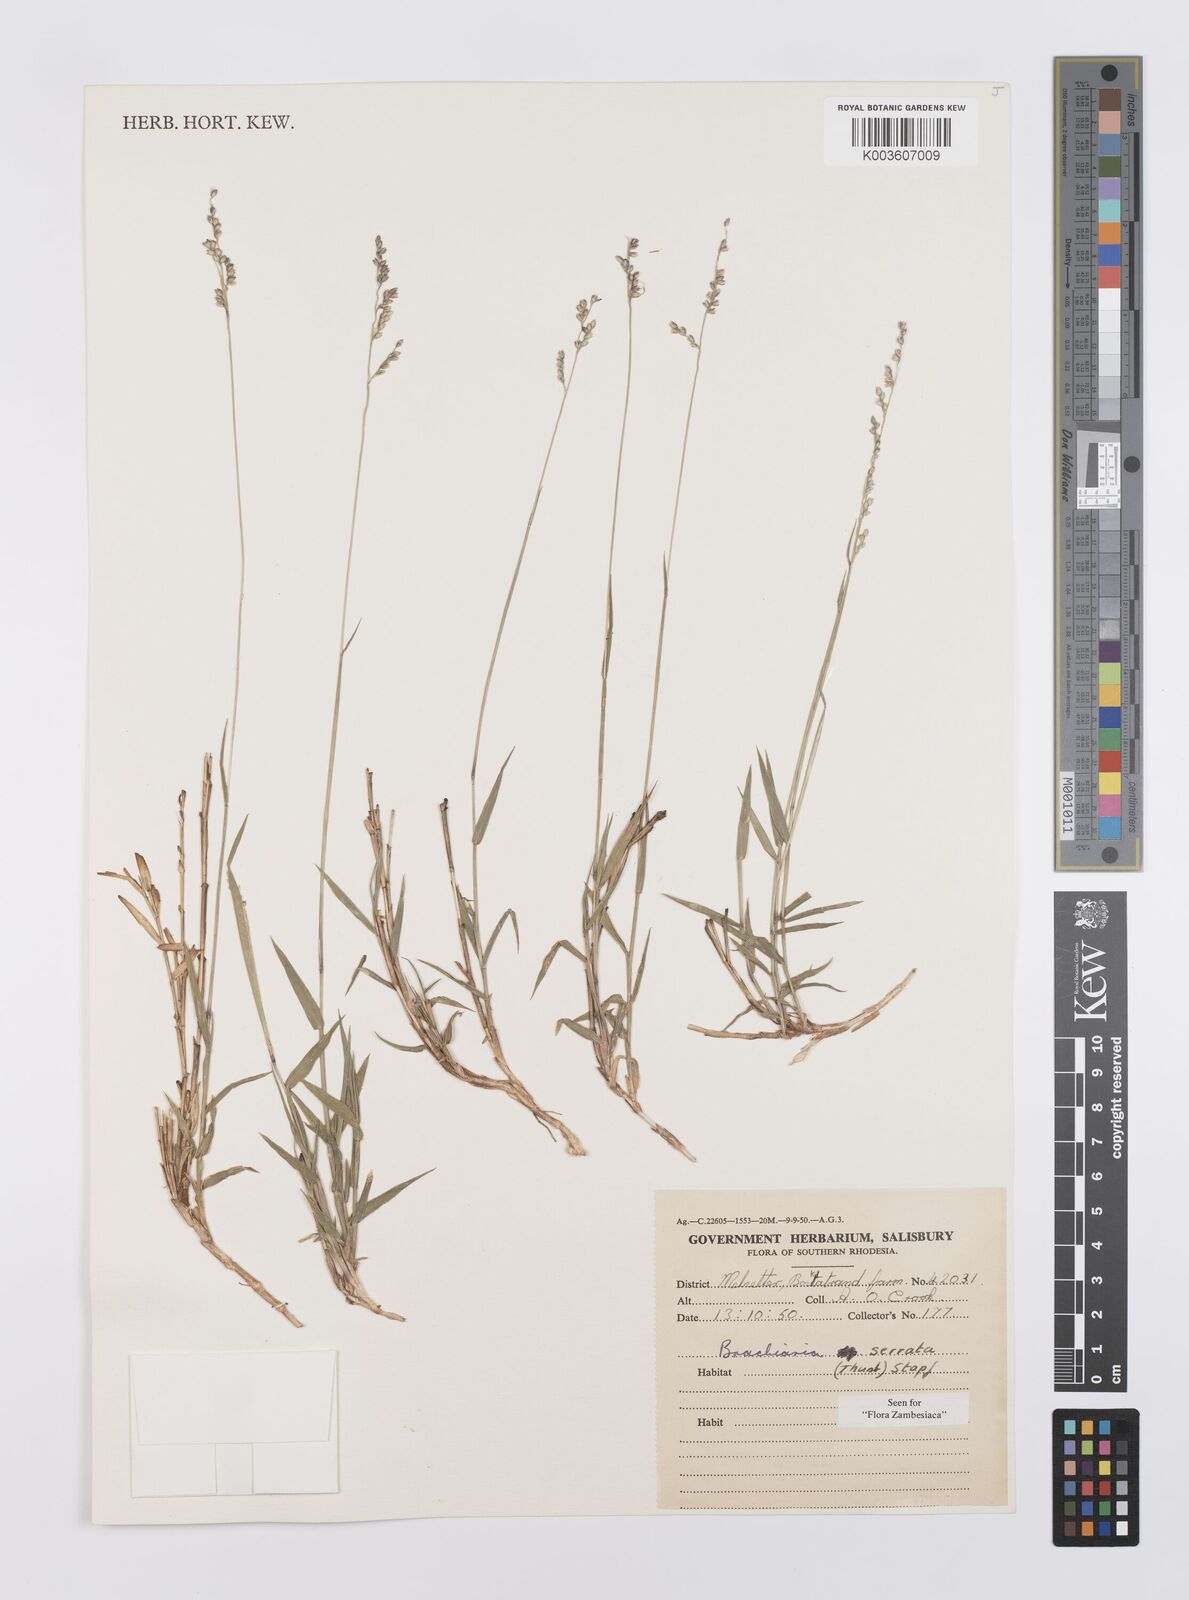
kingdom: Plantae
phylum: Tracheophyta
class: Liliopsida
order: Poales
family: Poaceae
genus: Urochloa
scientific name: Urochloa serrata
